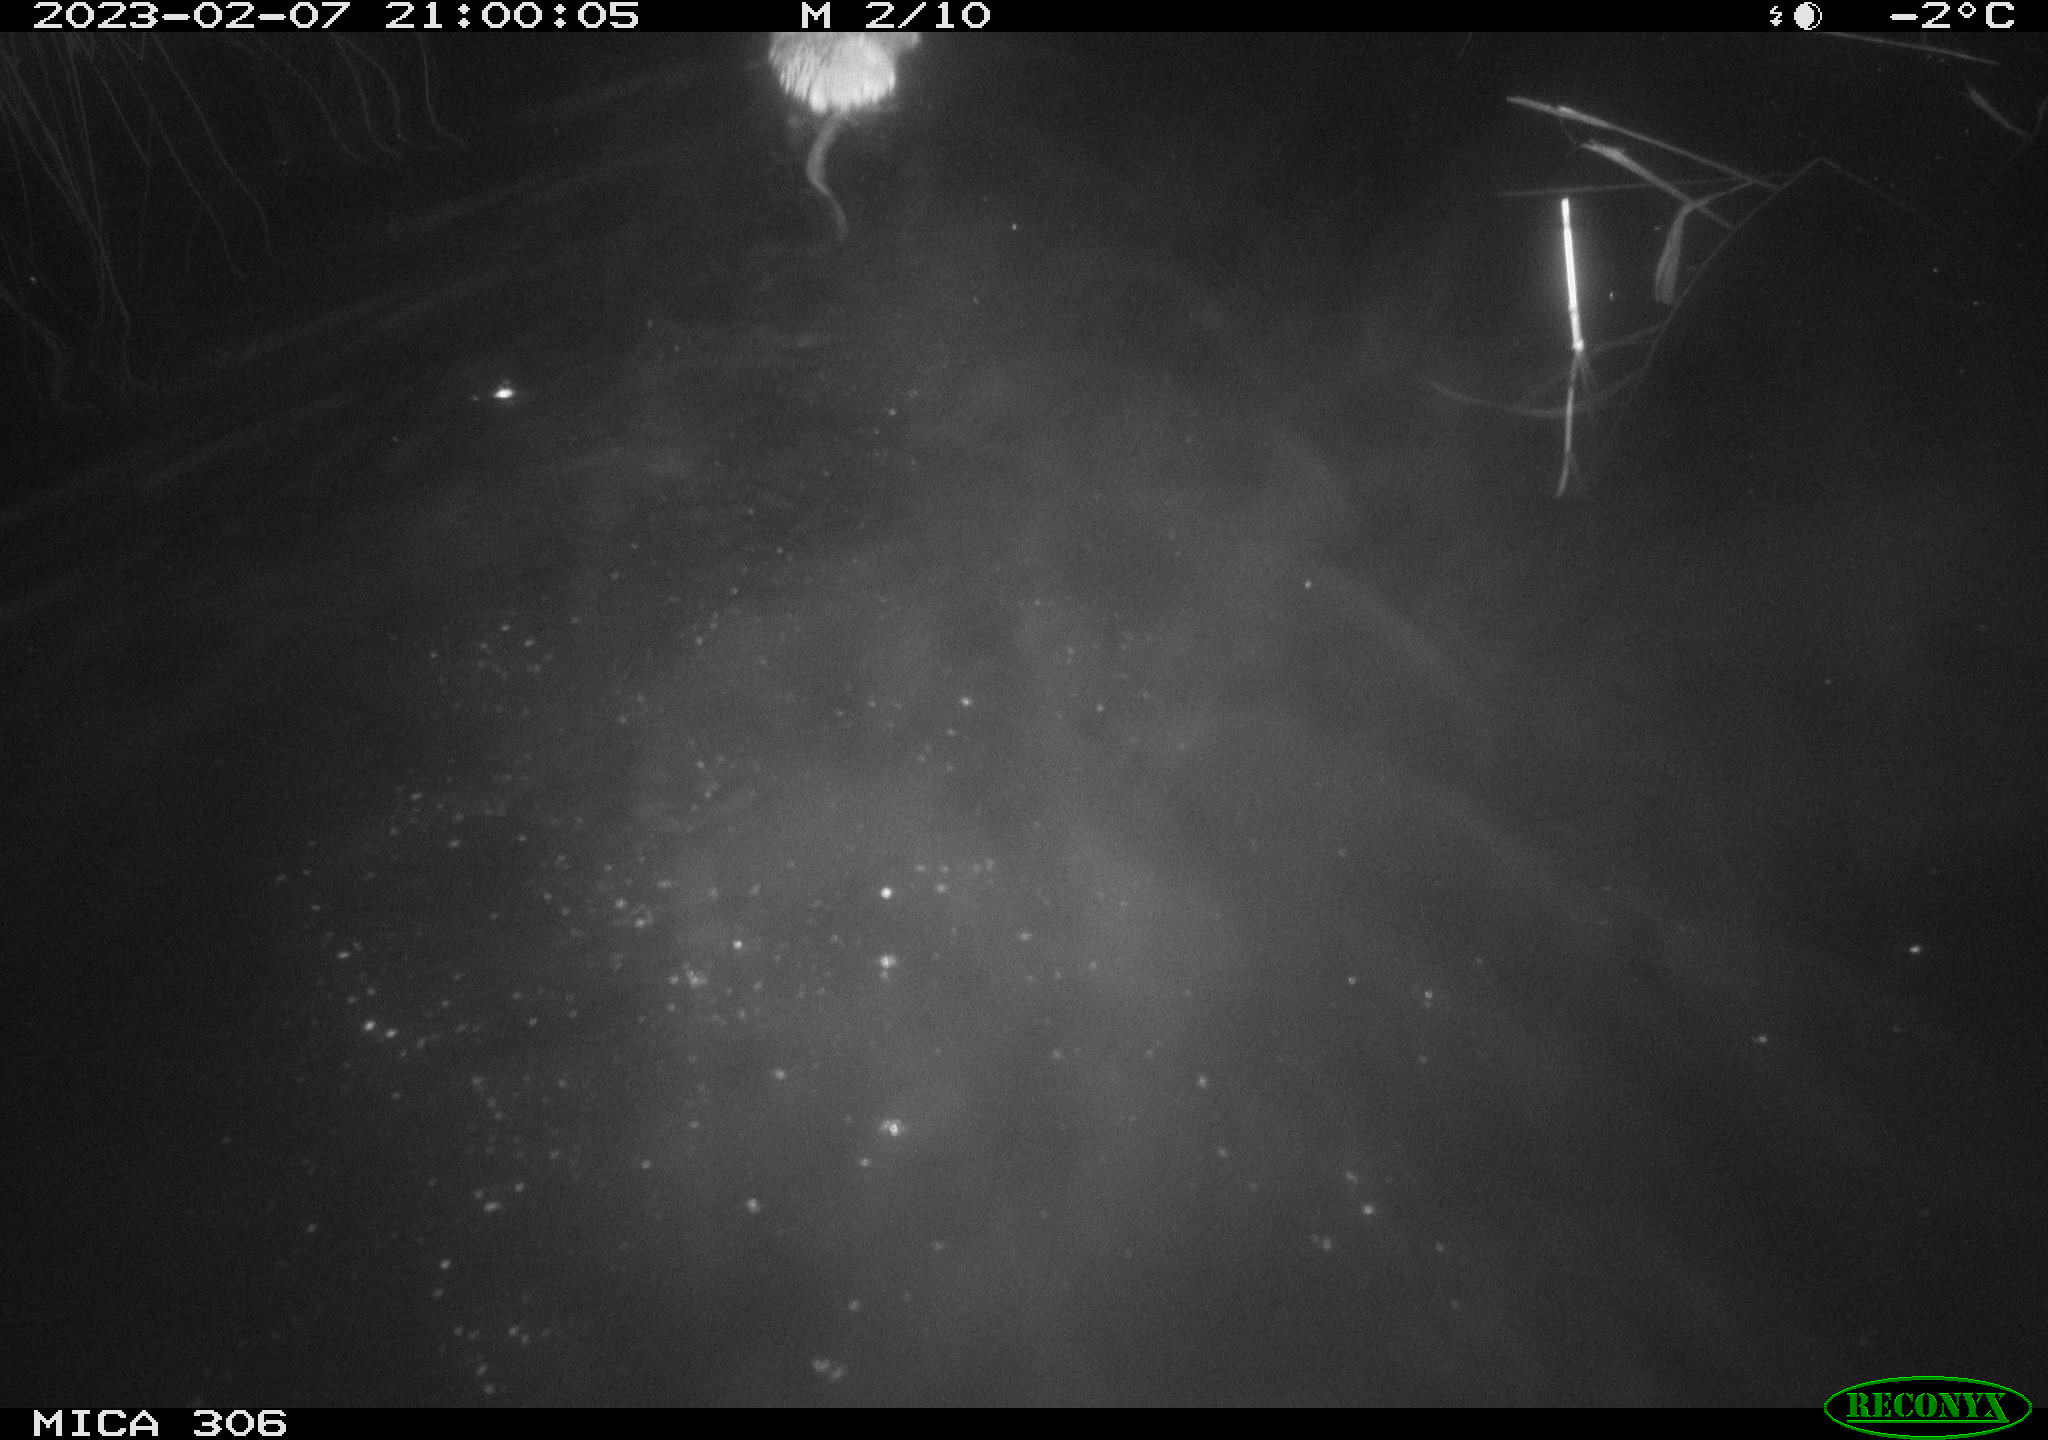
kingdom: Animalia
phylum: Chordata
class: Mammalia
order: Rodentia
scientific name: Rodentia
